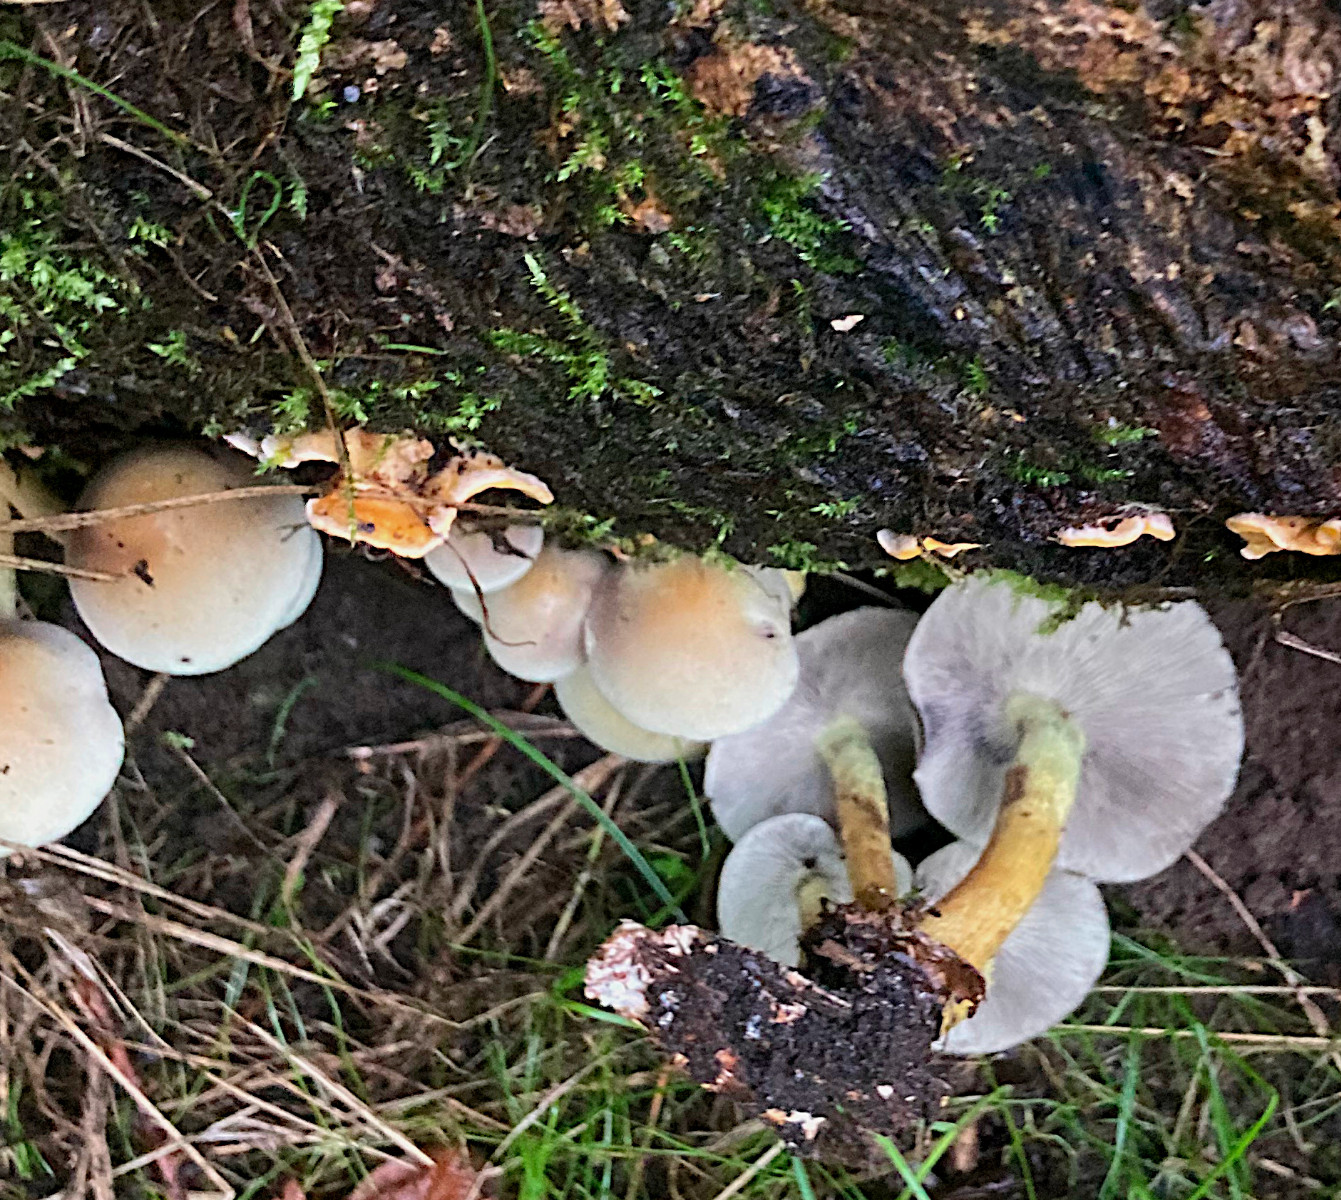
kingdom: Fungi
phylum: Basidiomycota
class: Agaricomycetes
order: Agaricales
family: Strophariaceae
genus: Hypholoma
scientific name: Hypholoma fasciculare
